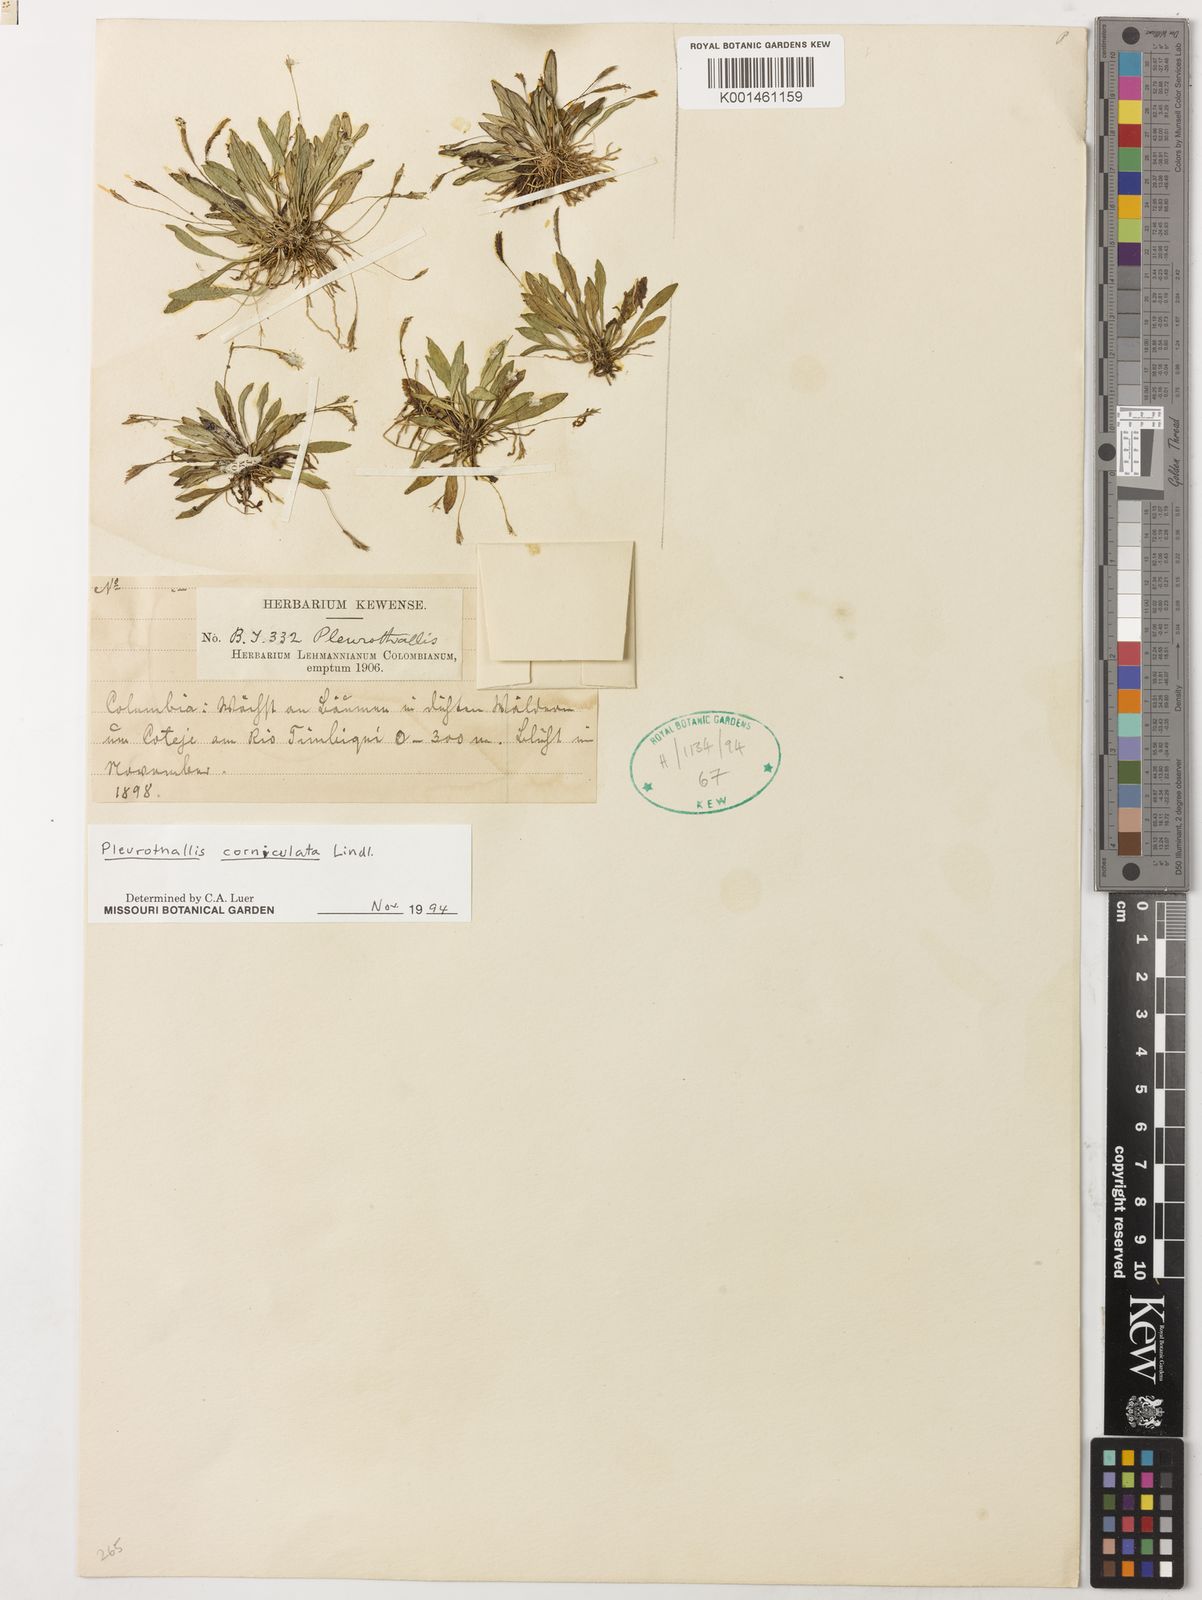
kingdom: Plantae
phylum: Tracheophyta
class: Liliopsida
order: Asparagales
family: Orchidaceae
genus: Specklinia
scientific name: Specklinia corniculata
